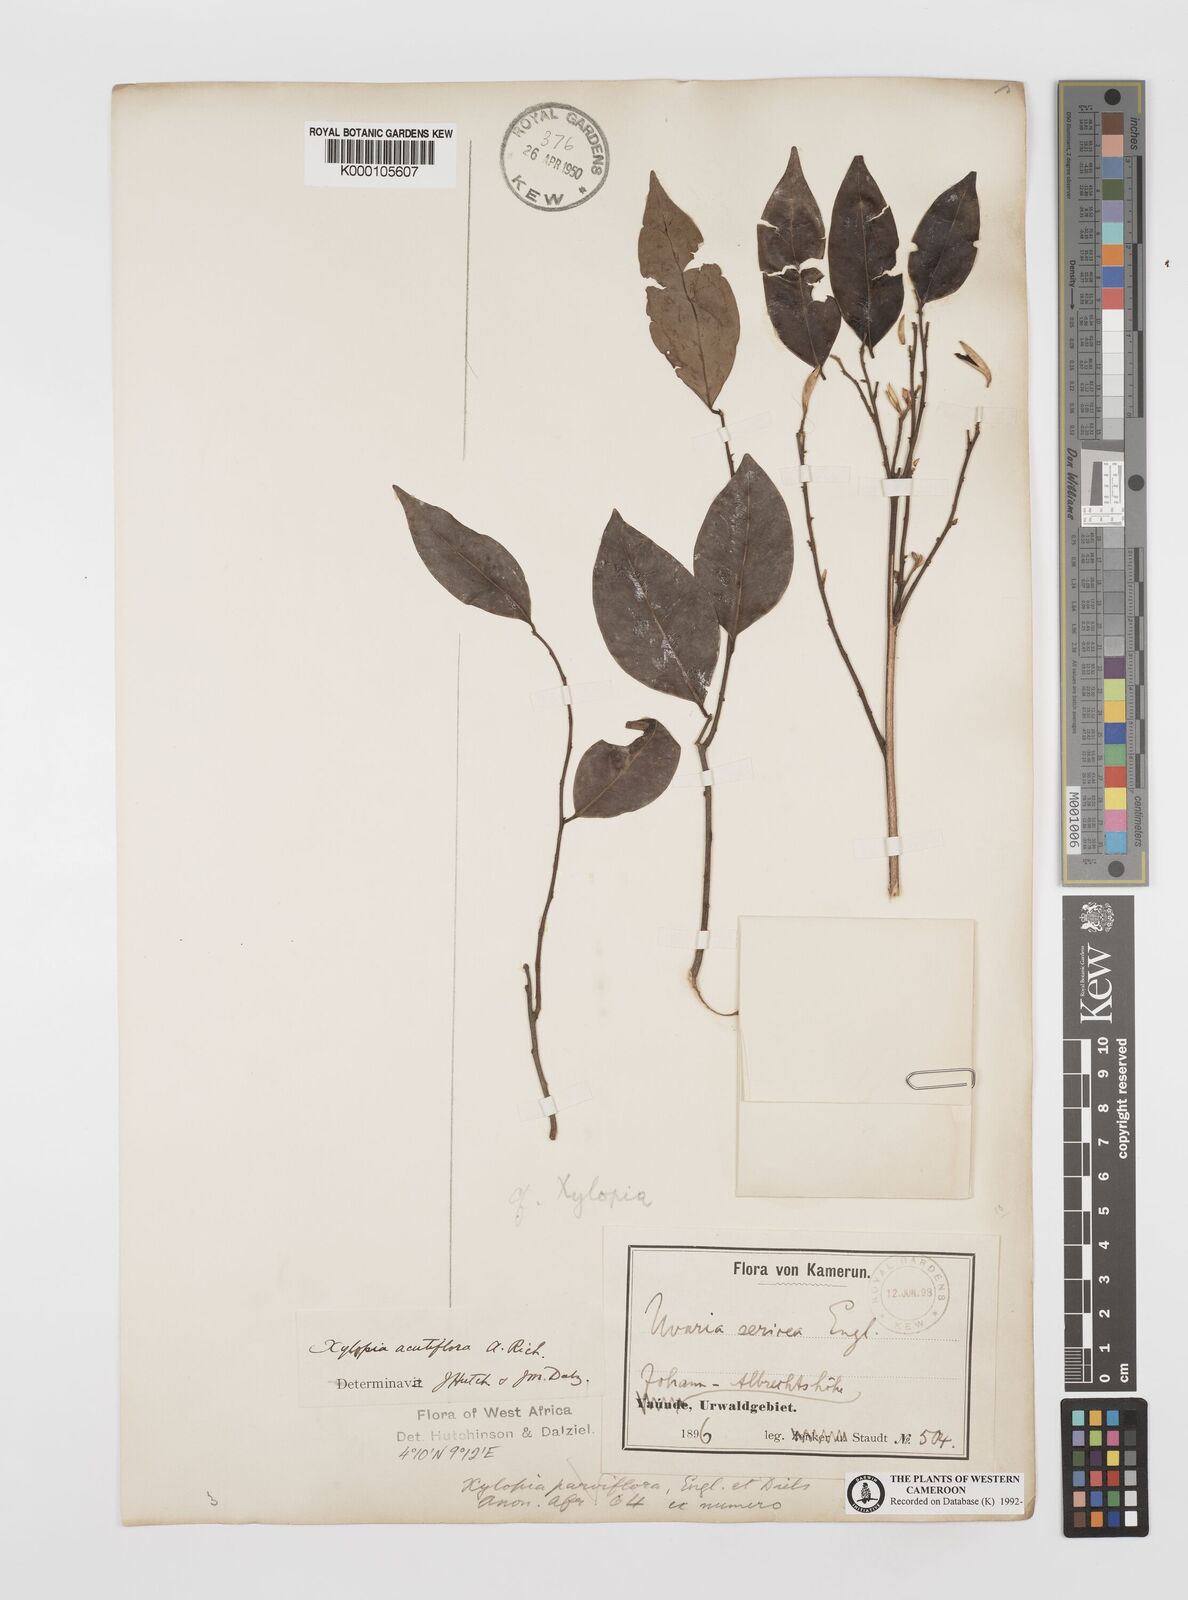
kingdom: Plantae
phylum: Tracheophyta
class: Magnoliopsida
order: Magnoliales
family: Annonaceae
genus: Xylopia
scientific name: Xylopia acutiflora
